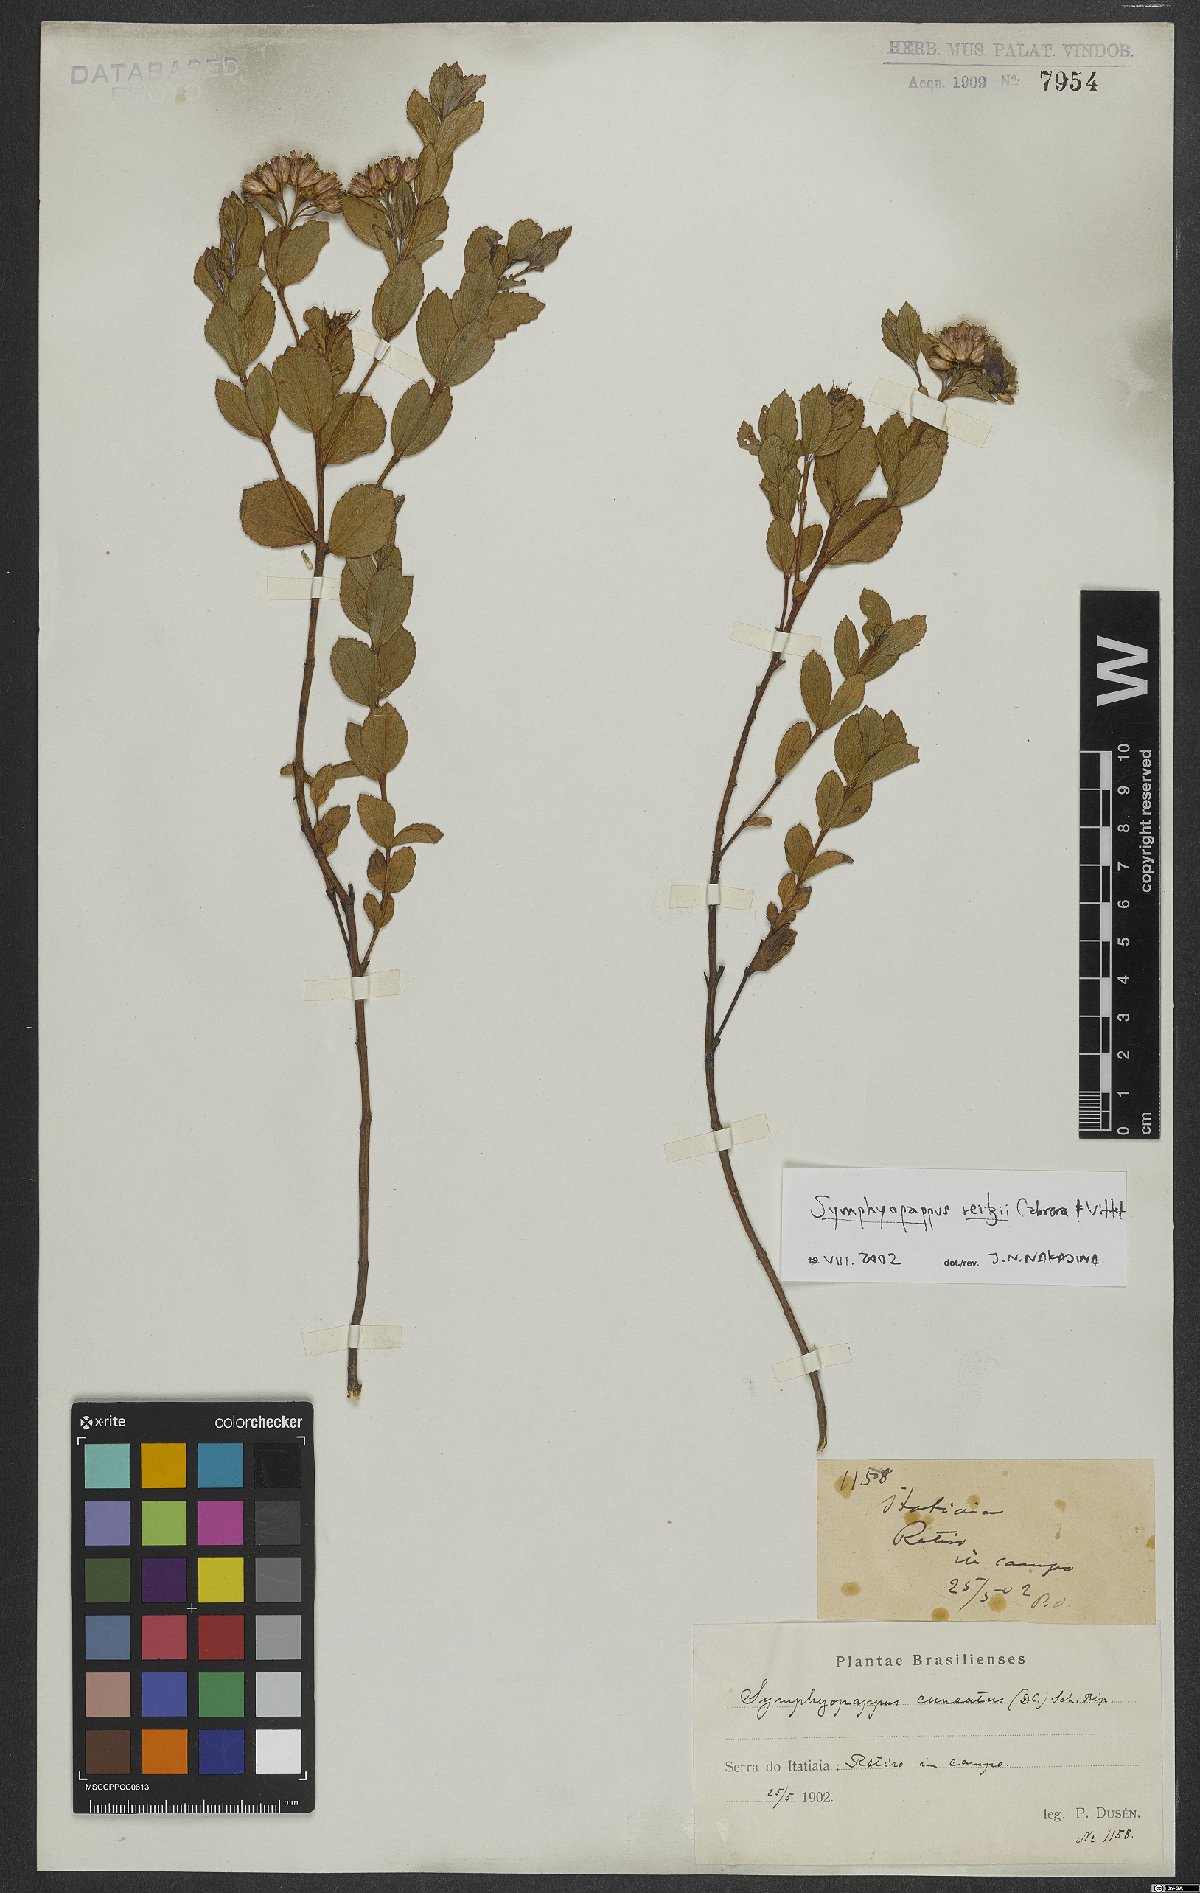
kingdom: Plantae
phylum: Tracheophyta
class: Magnoliopsida
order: Asterales
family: Asteraceae
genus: Symphyopappus
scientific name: Symphyopappus reitzii
